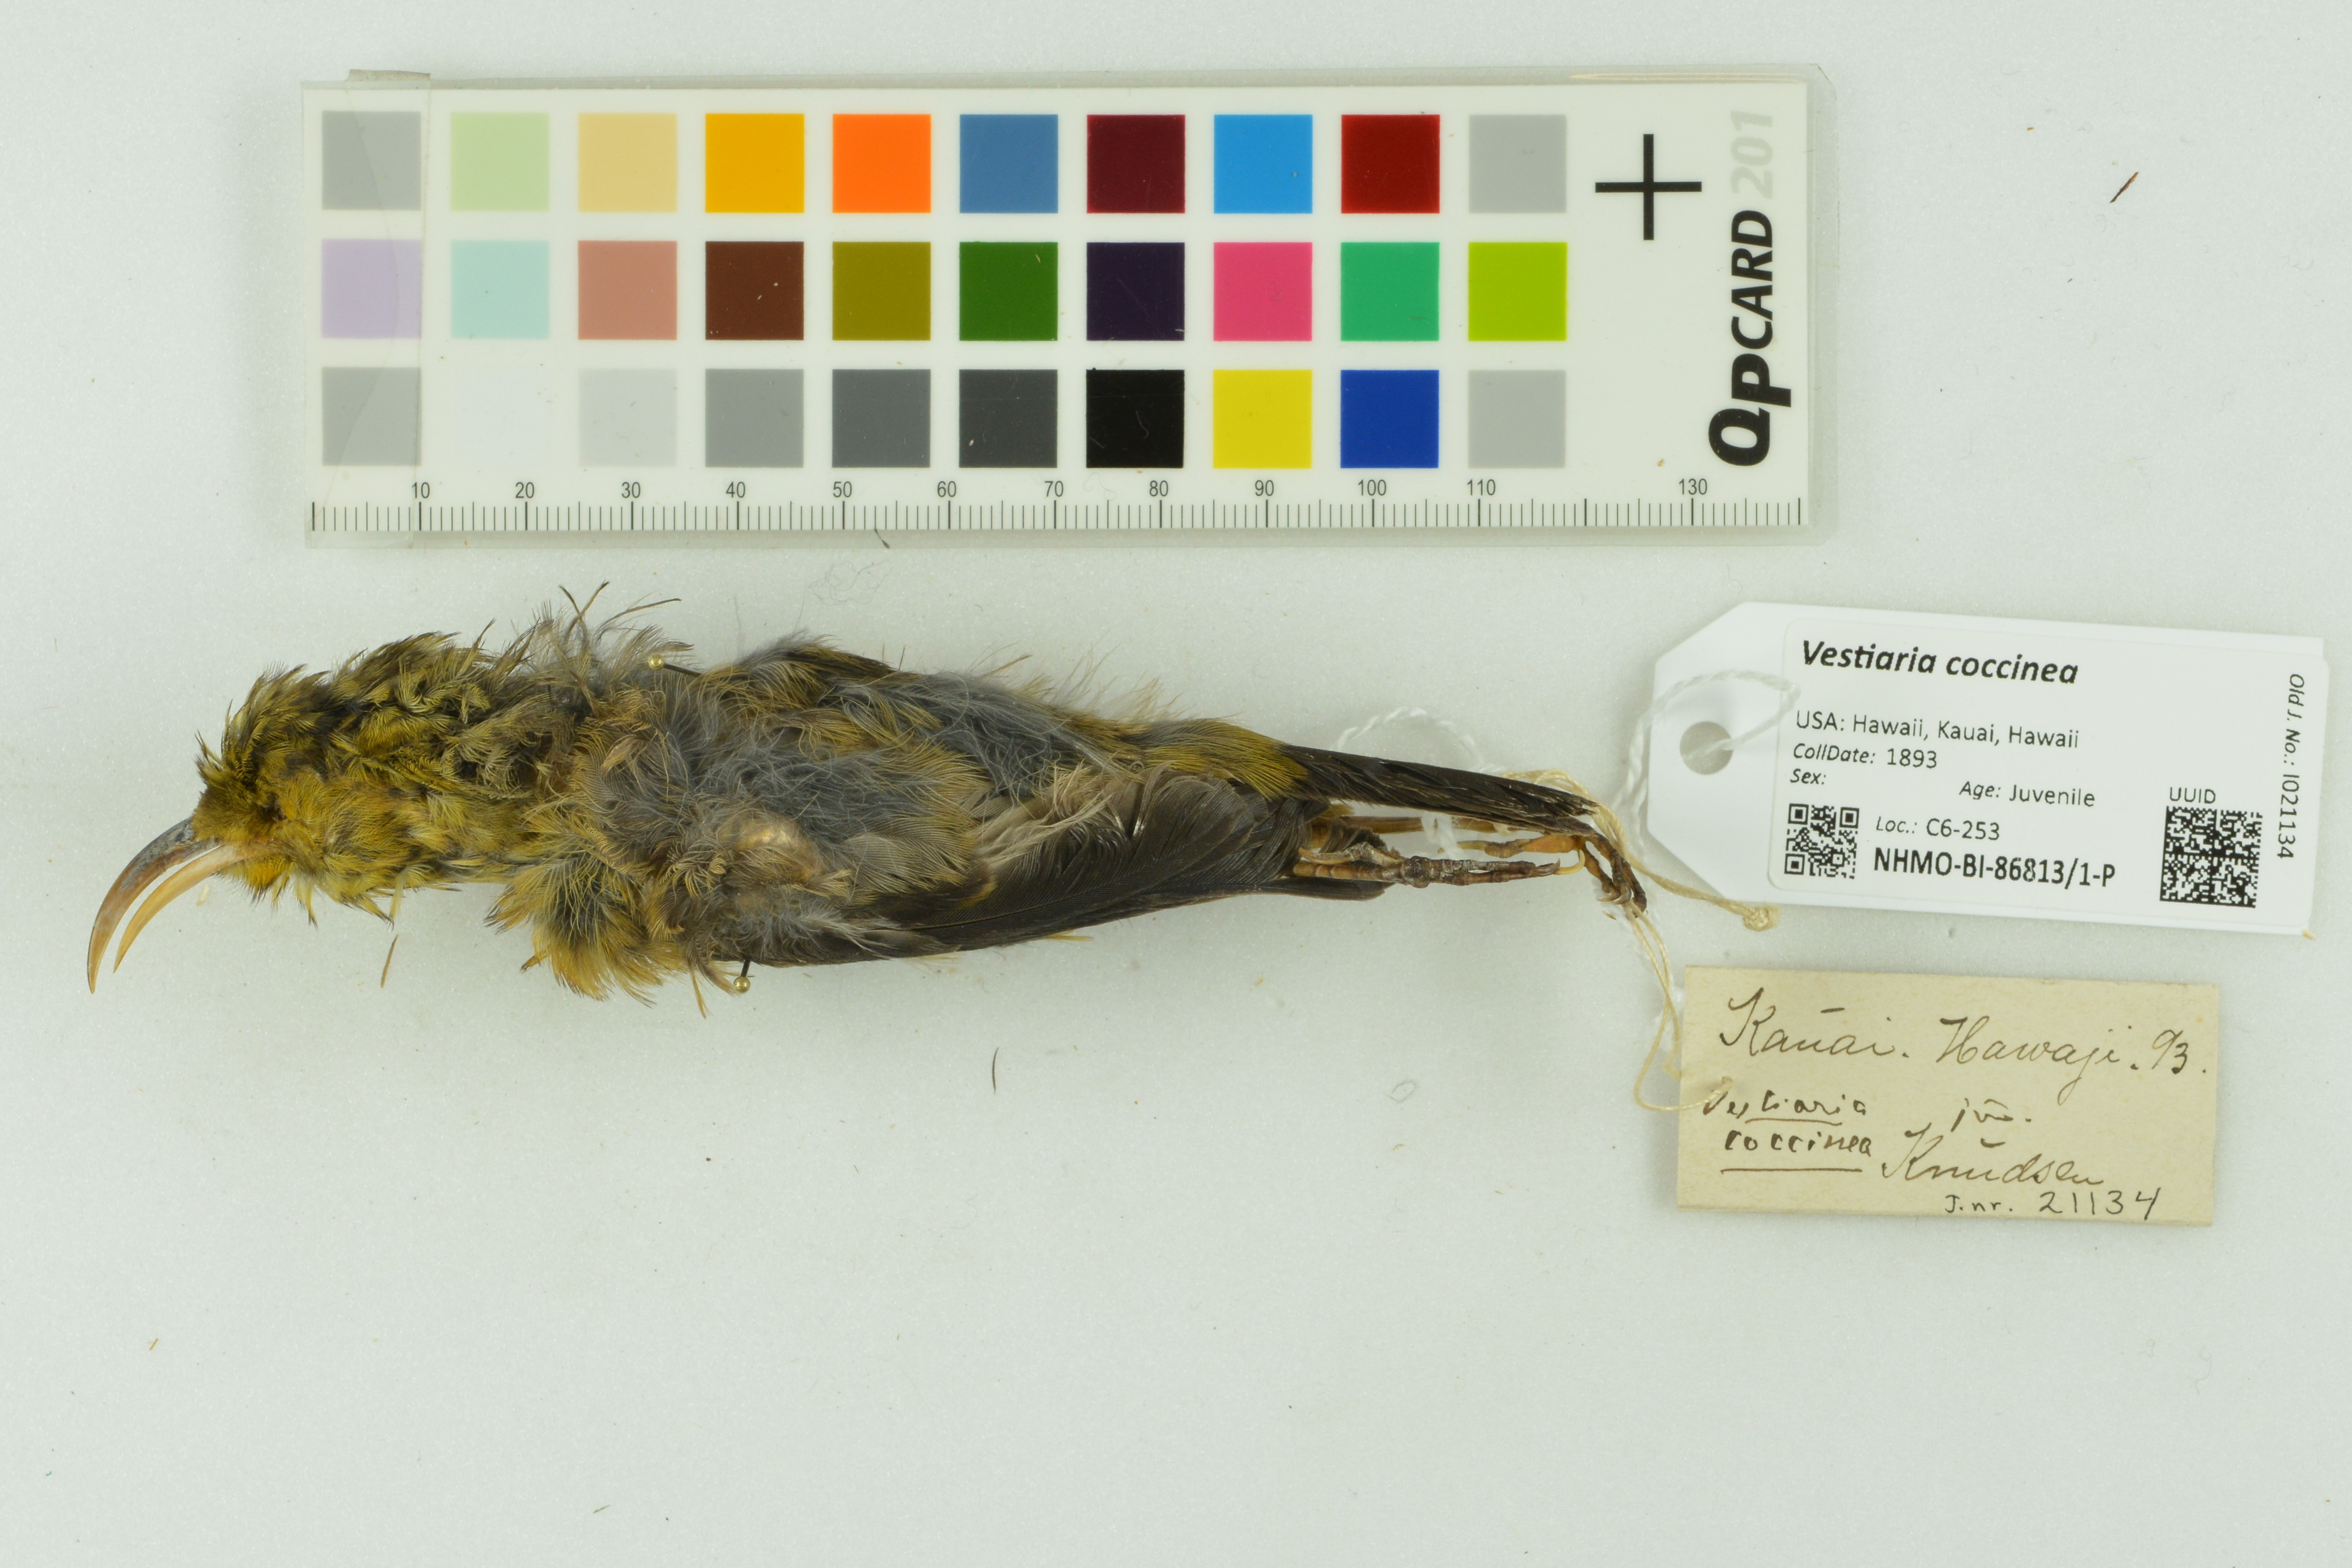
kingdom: Animalia
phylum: Chordata
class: Aves
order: Passeriformes
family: Fringillidae
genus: Vestiaria
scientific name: Vestiaria coccinea
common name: Iiwi
